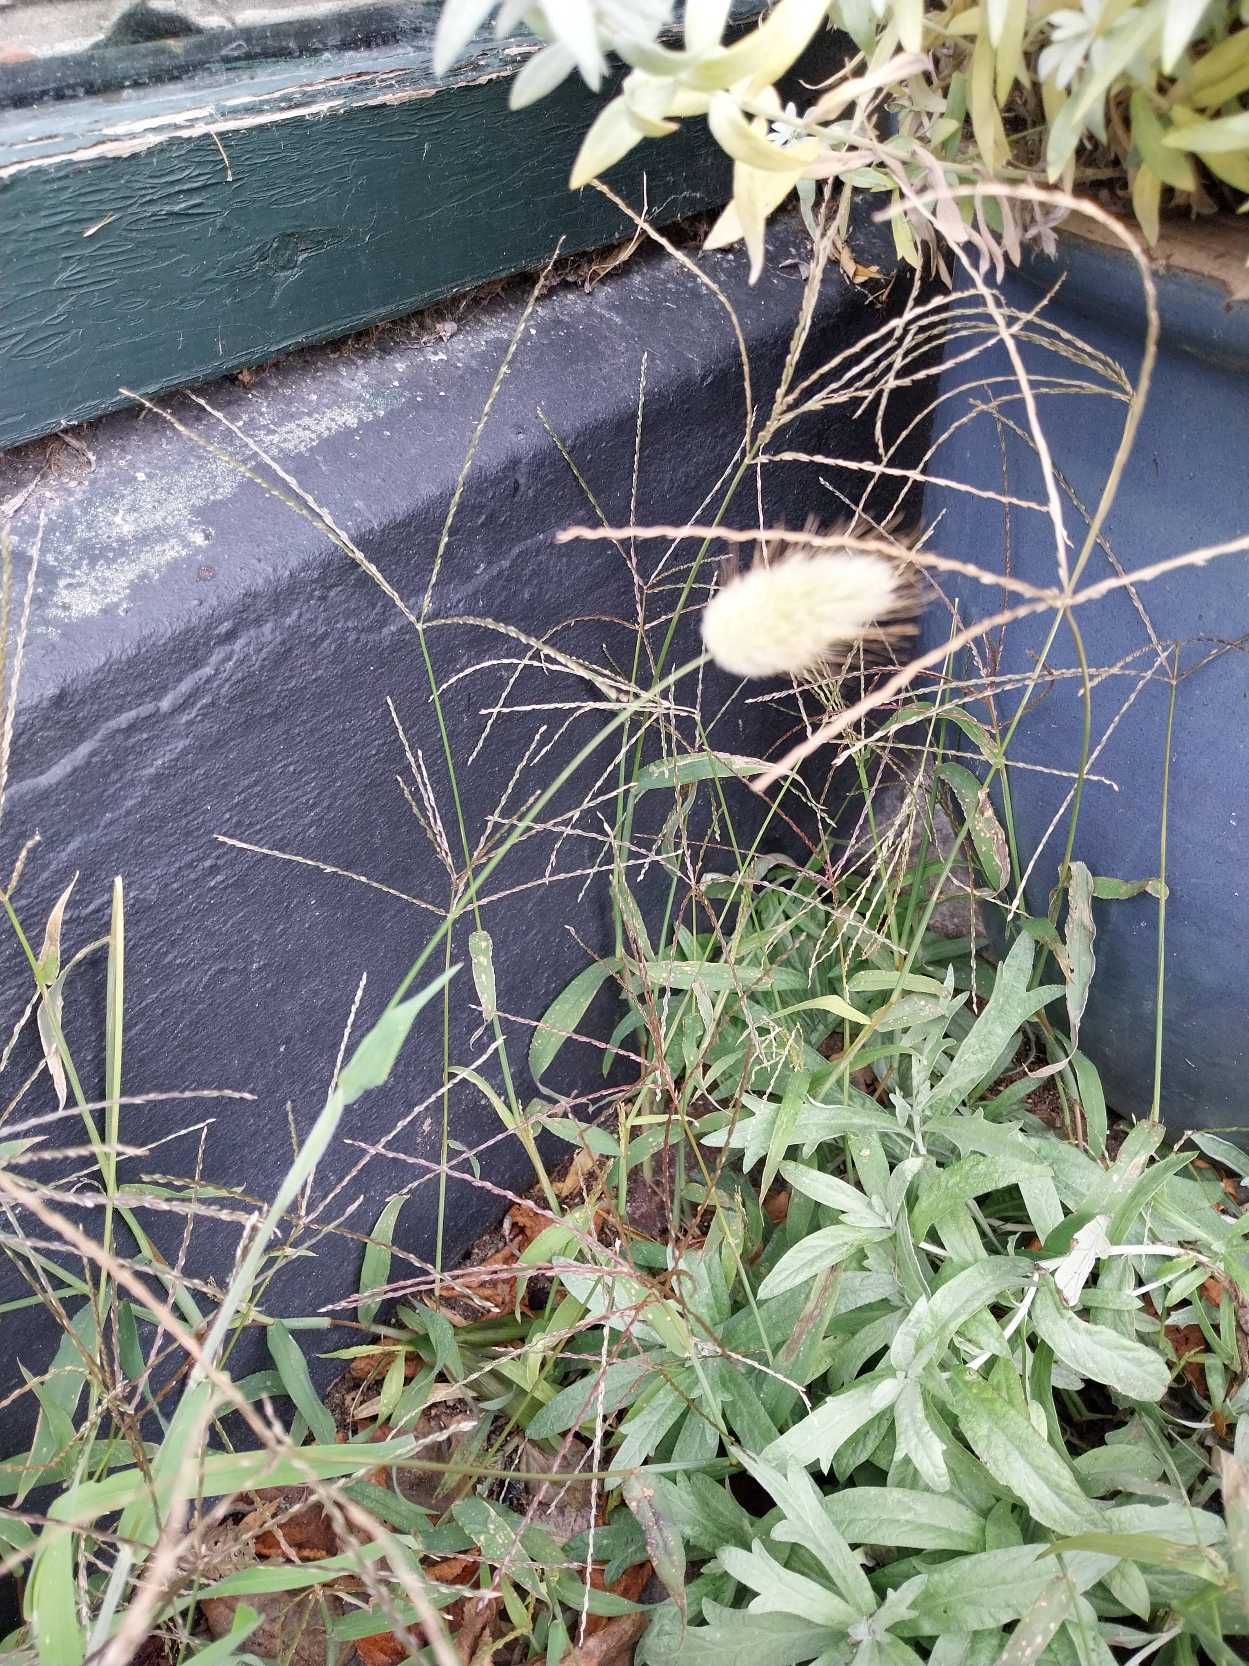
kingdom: Plantae
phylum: Tracheophyta
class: Liliopsida
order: Poales
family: Poaceae
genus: Lagurus
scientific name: Lagurus ovatus
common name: Harehale
